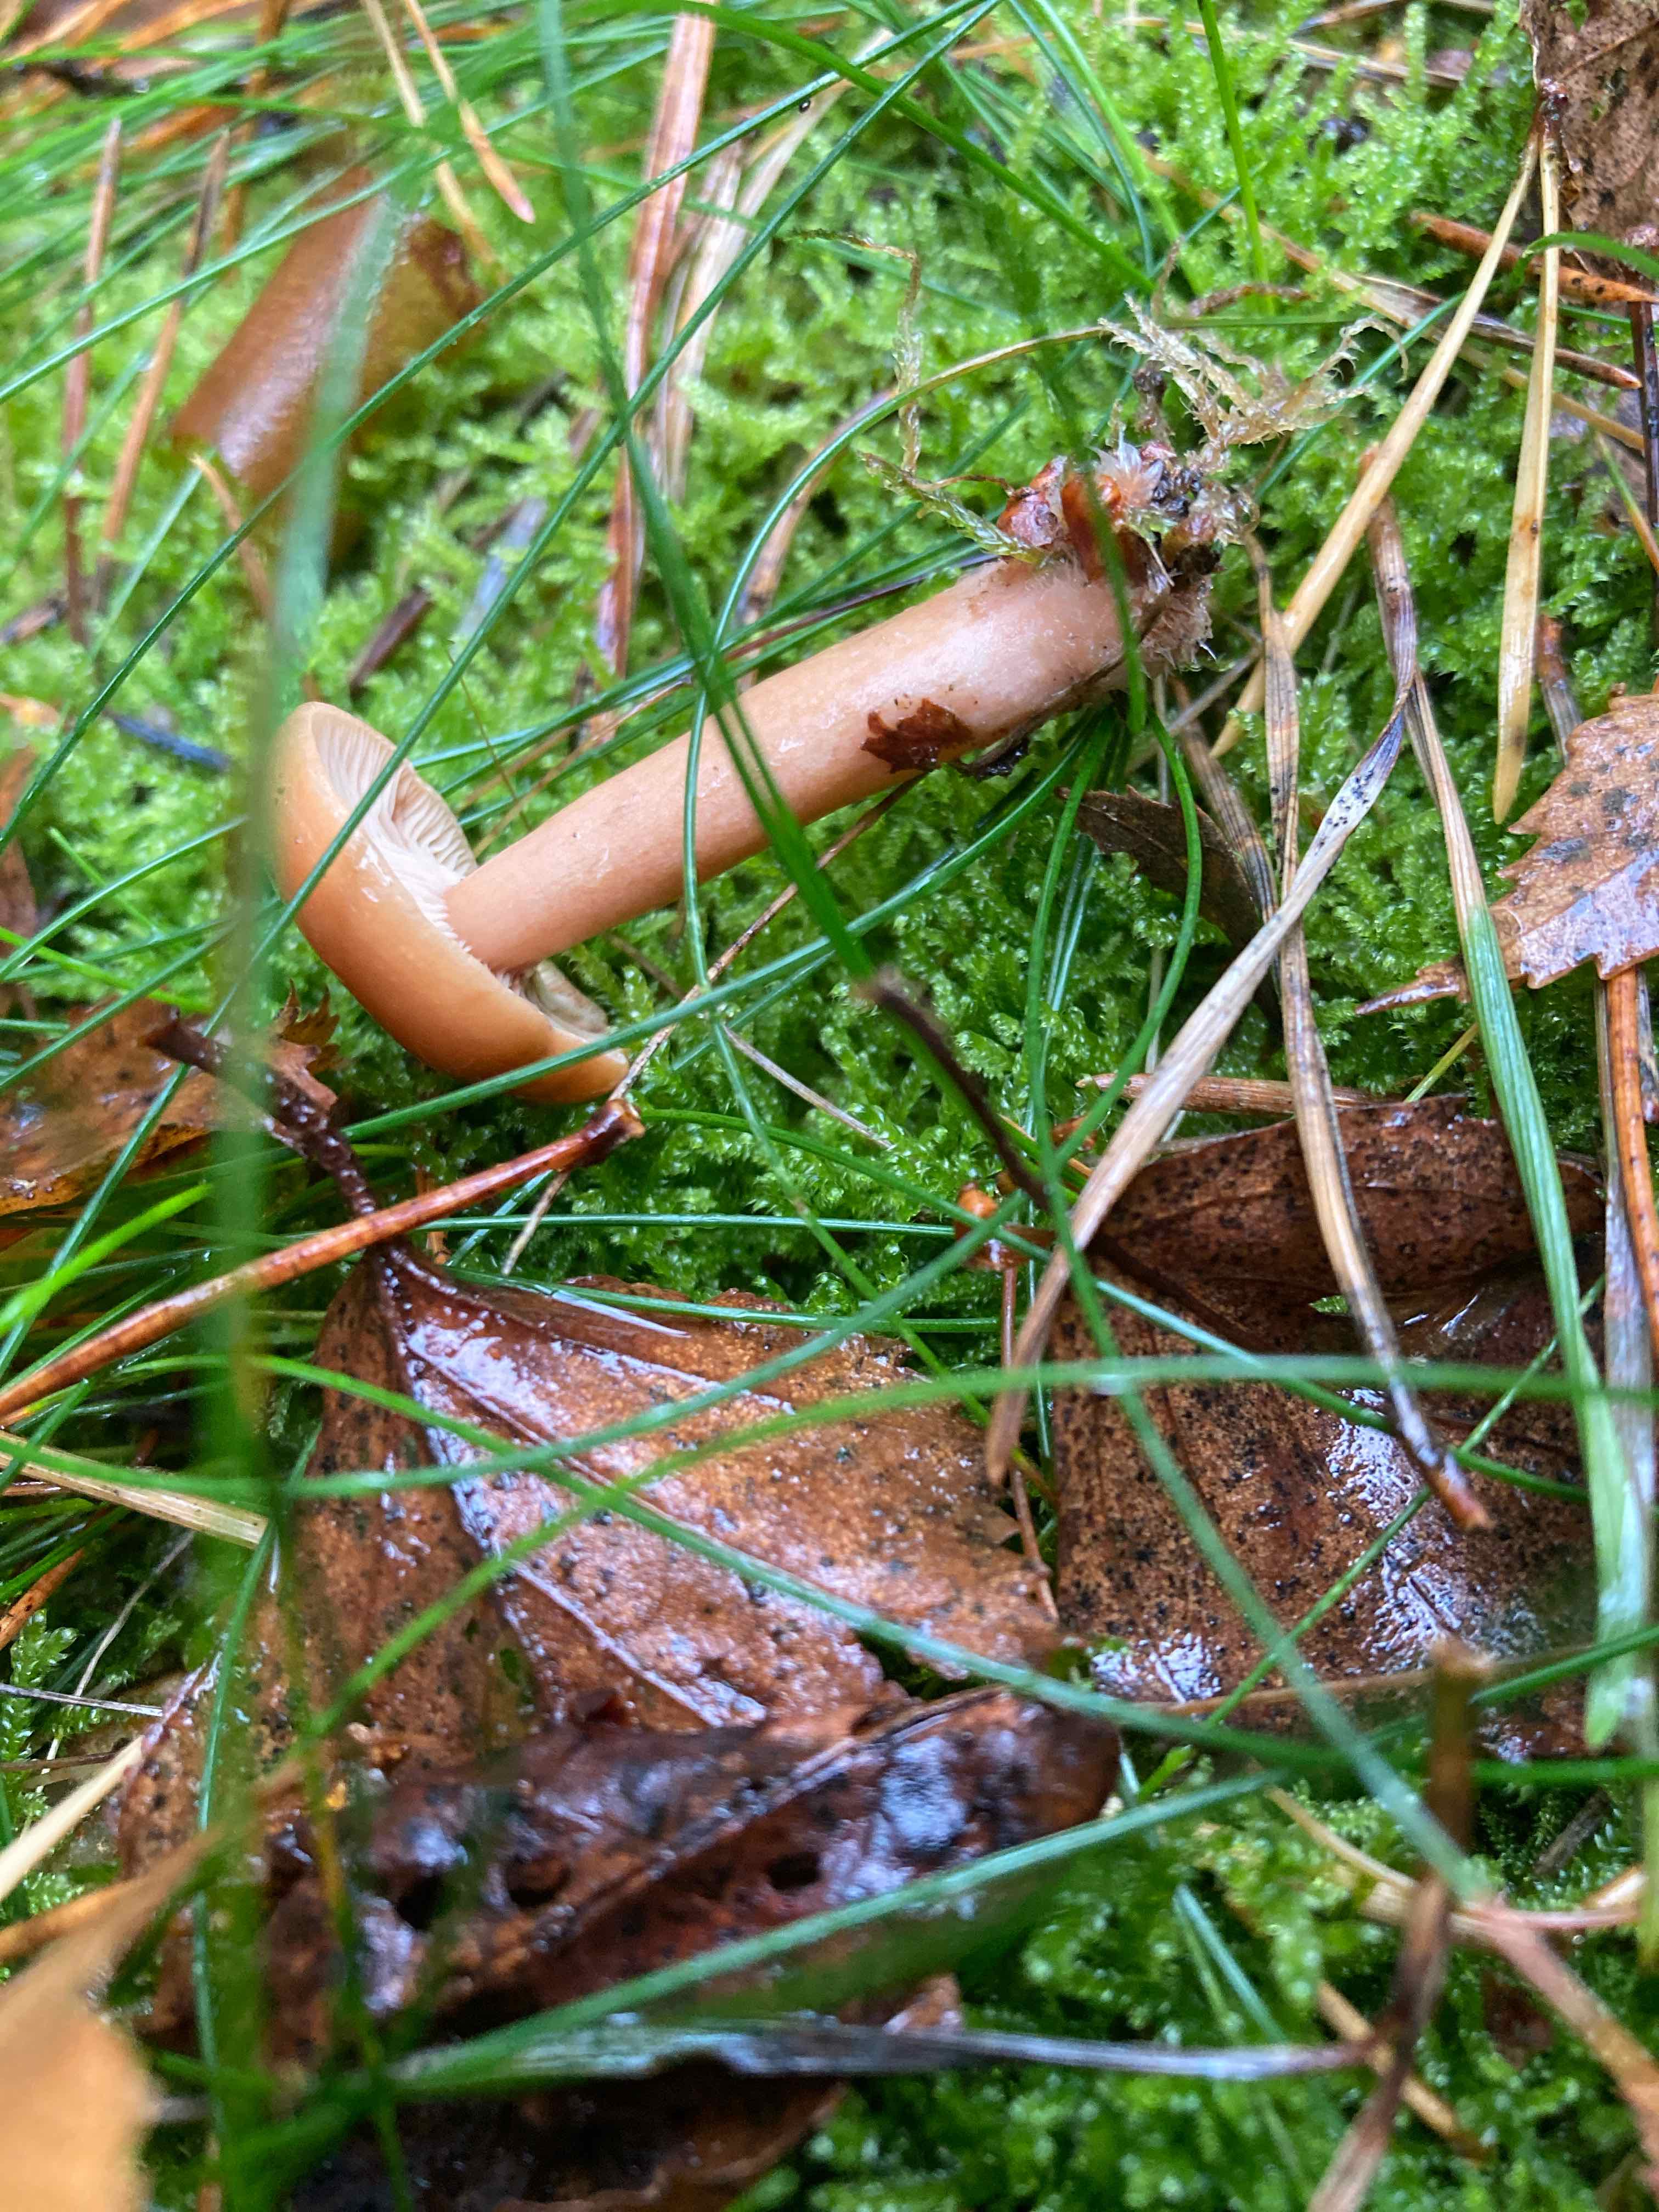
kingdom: Fungi
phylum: Basidiomycota
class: Agaricomycetes
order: Russulales
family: Russulaceae
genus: Lactarius
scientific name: Lactarius tabidus
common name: rynket mælkehat
